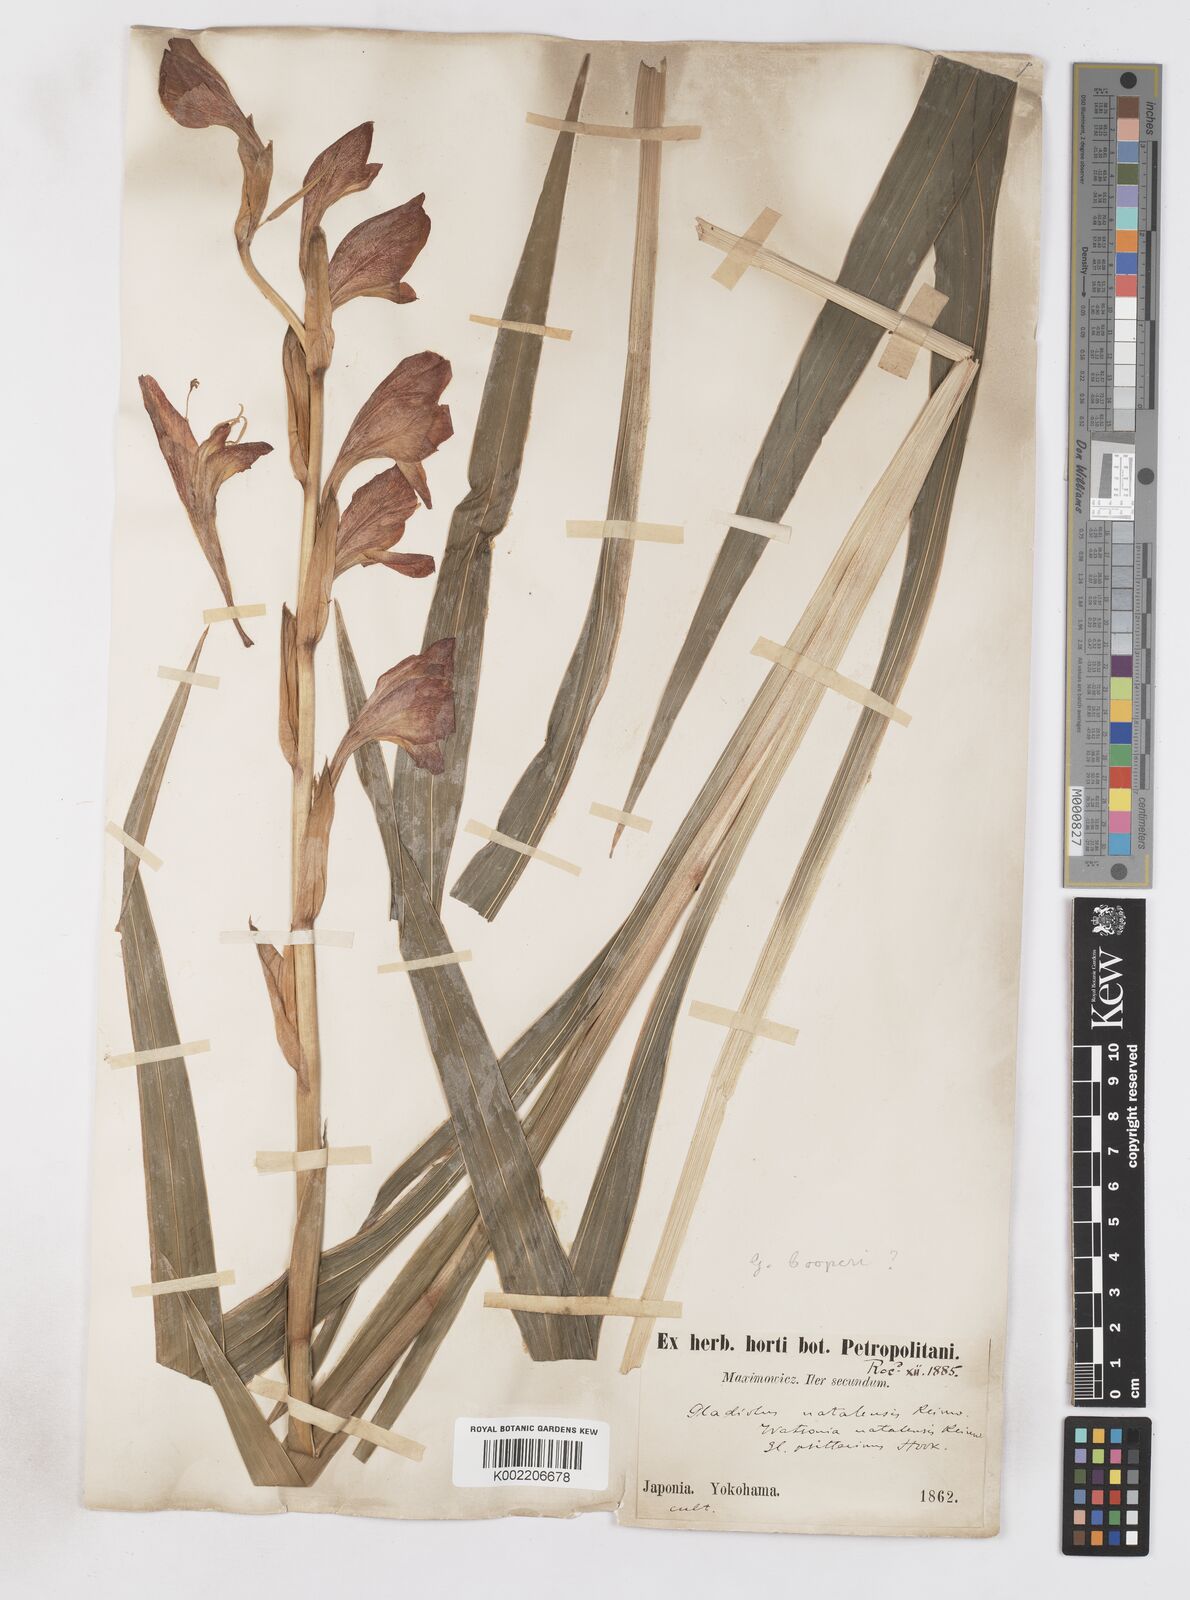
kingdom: Plantae
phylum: Tracheophyta
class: Liliopsida
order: Asparagales
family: Iridaceae
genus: Gladiolus
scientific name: Gladiolus dalenii
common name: Cornflag
